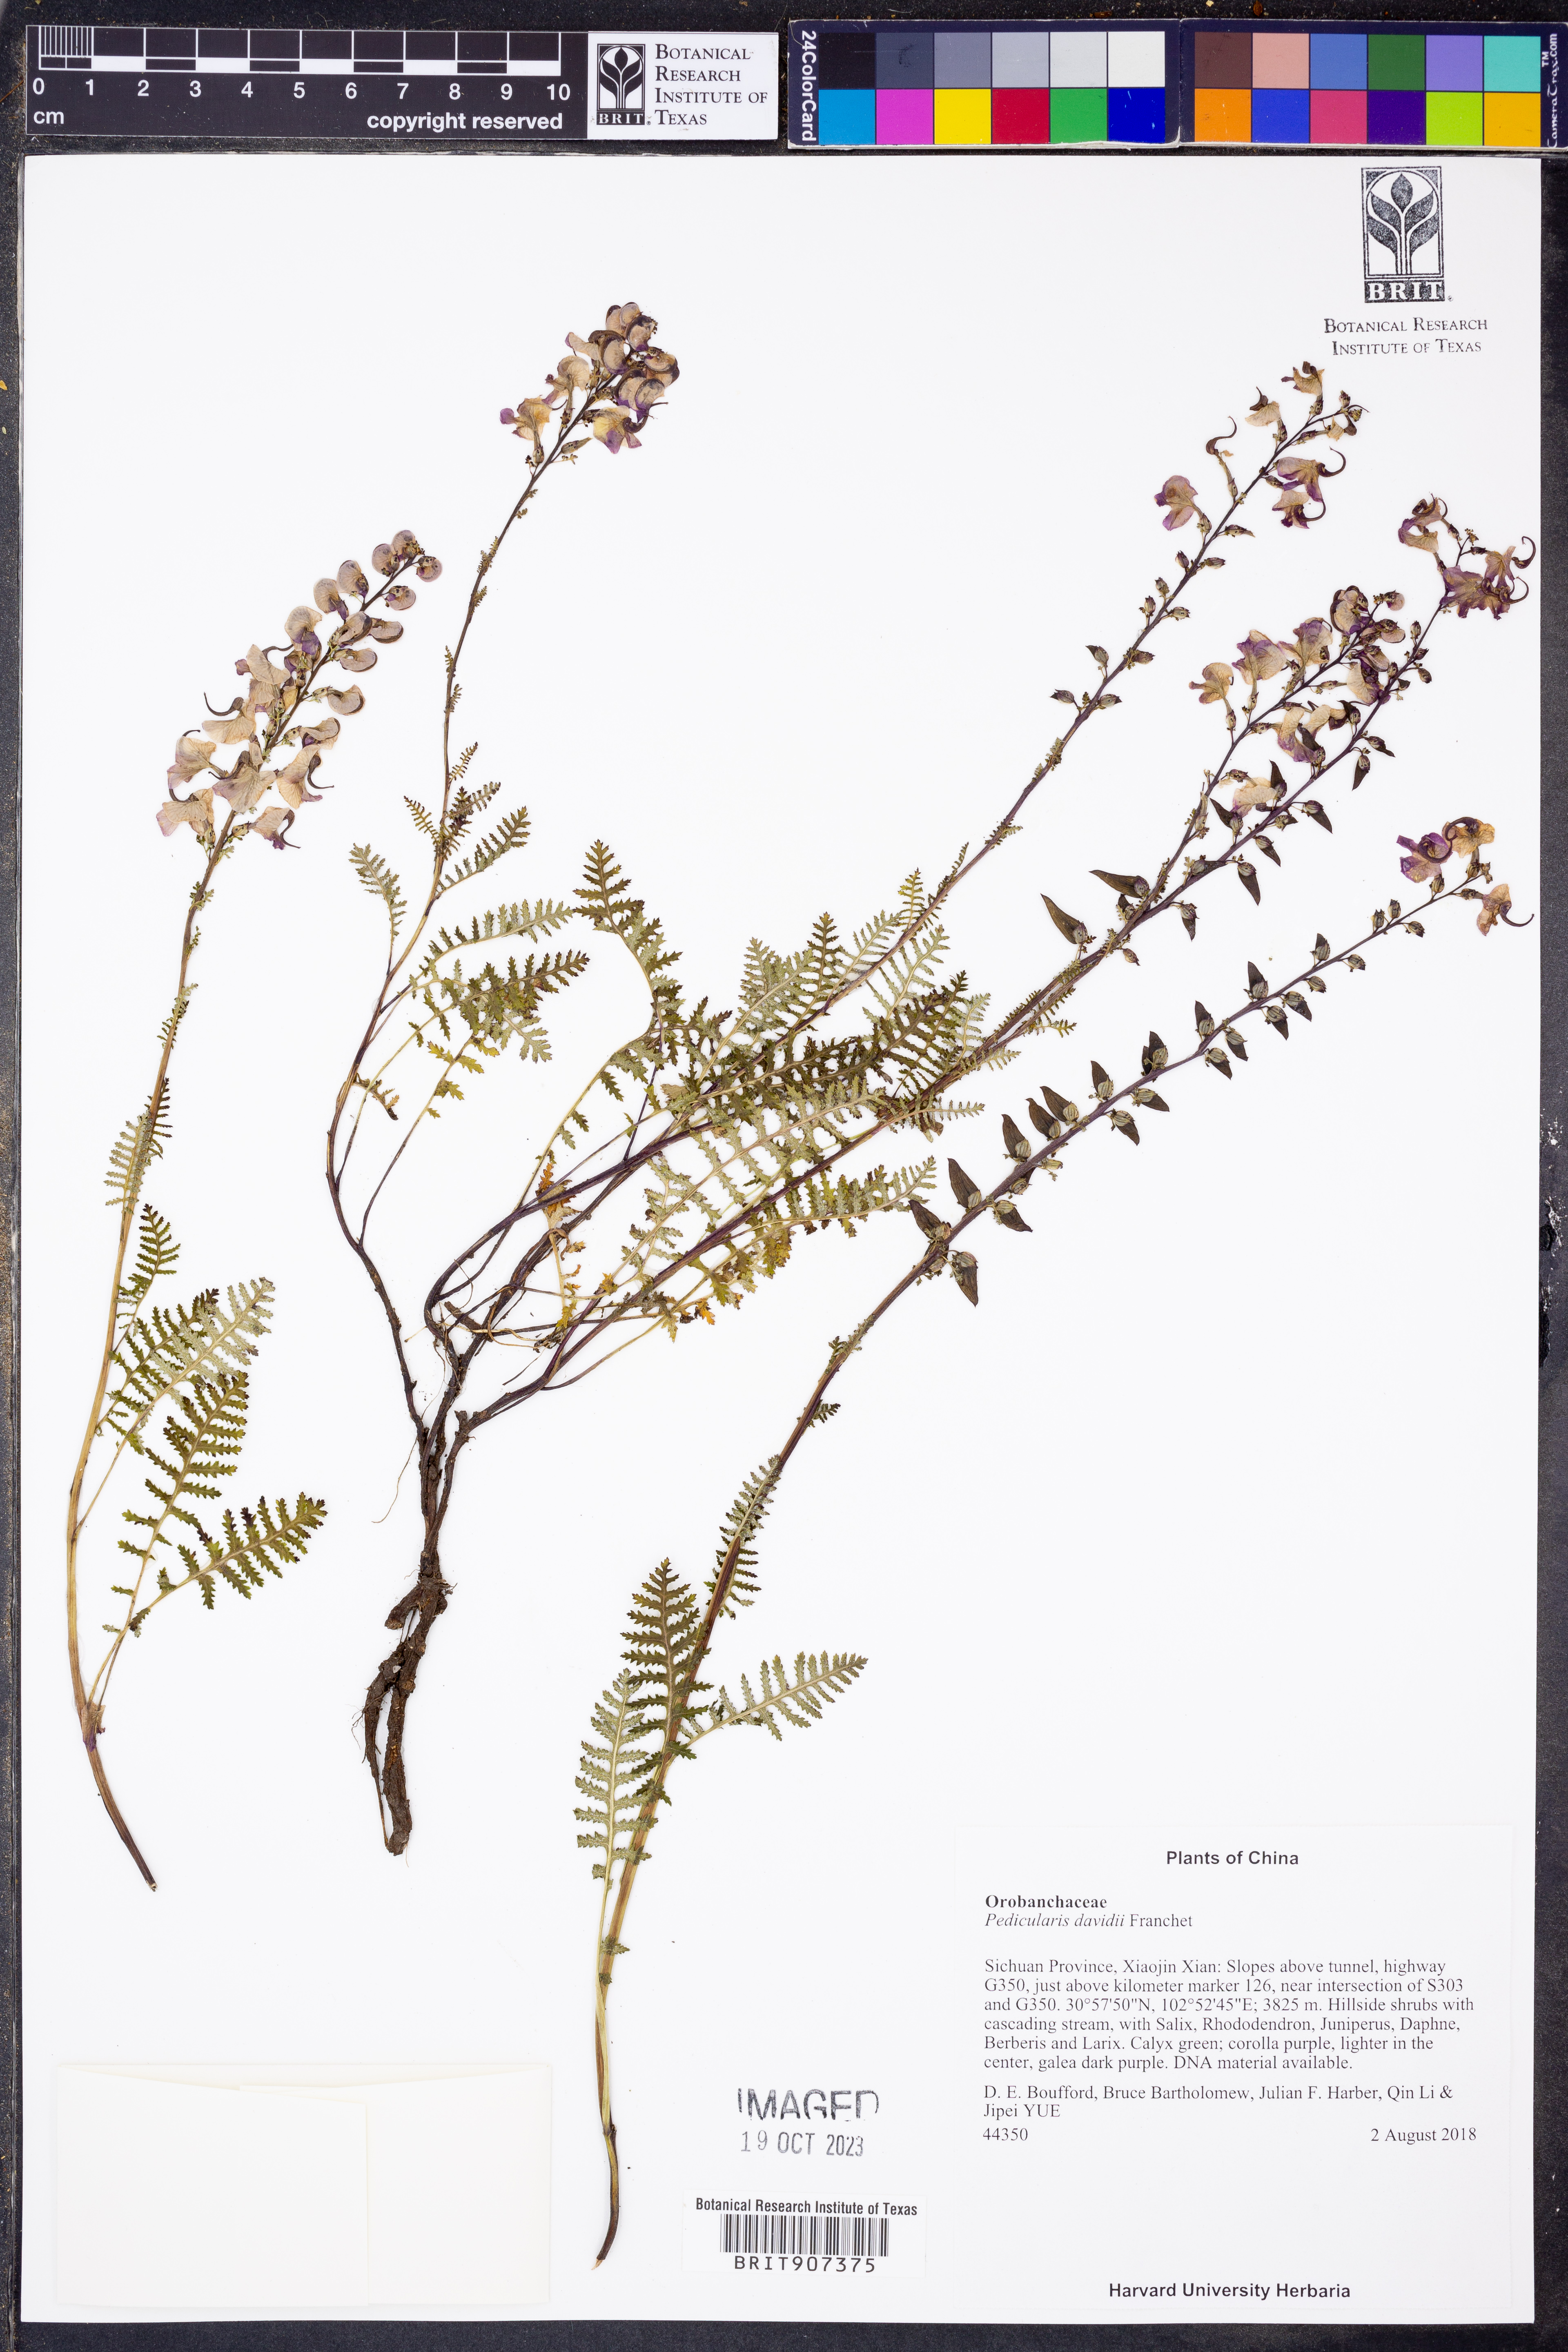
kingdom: Plantae
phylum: Tracheophyta
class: Magnoliopsida
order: Lamiales
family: Orobanchaceae
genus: Pedicularis
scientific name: Pedicularis davidii
